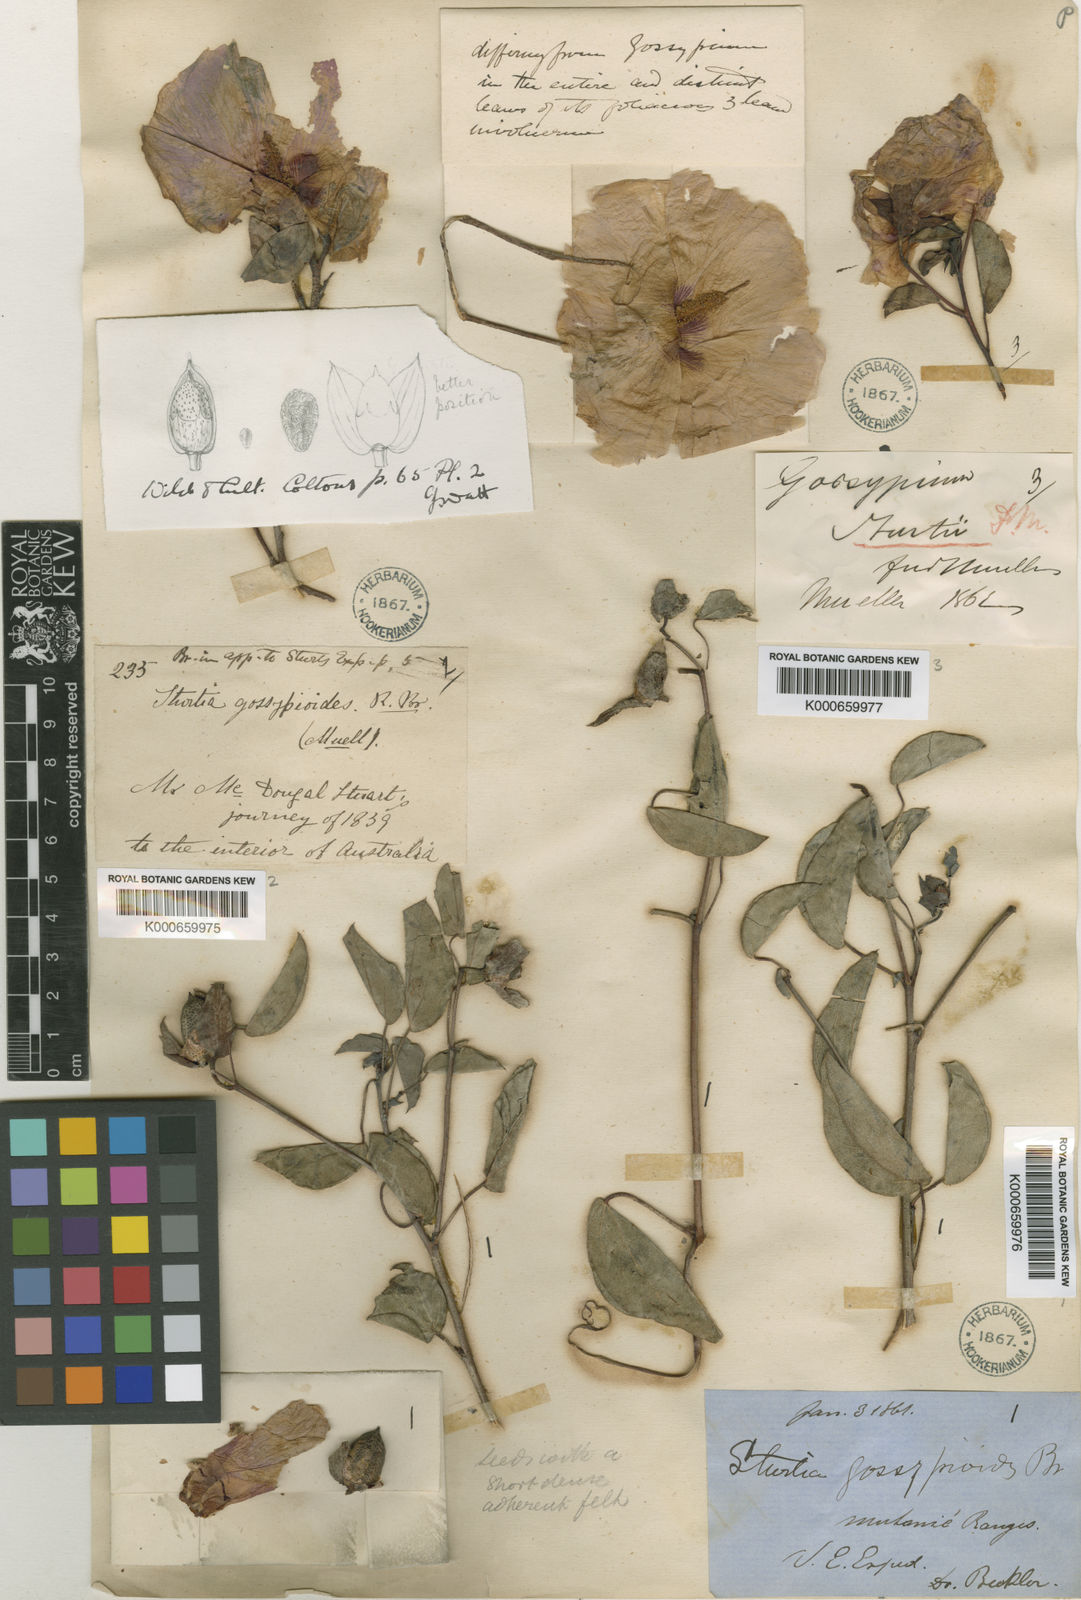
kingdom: Plantae
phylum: Tracheophyta
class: Magnoliopsida
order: Malvales
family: Malvaceae
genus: Gossypium
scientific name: Gossypium sturtianum
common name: Sturt's desert-rose
